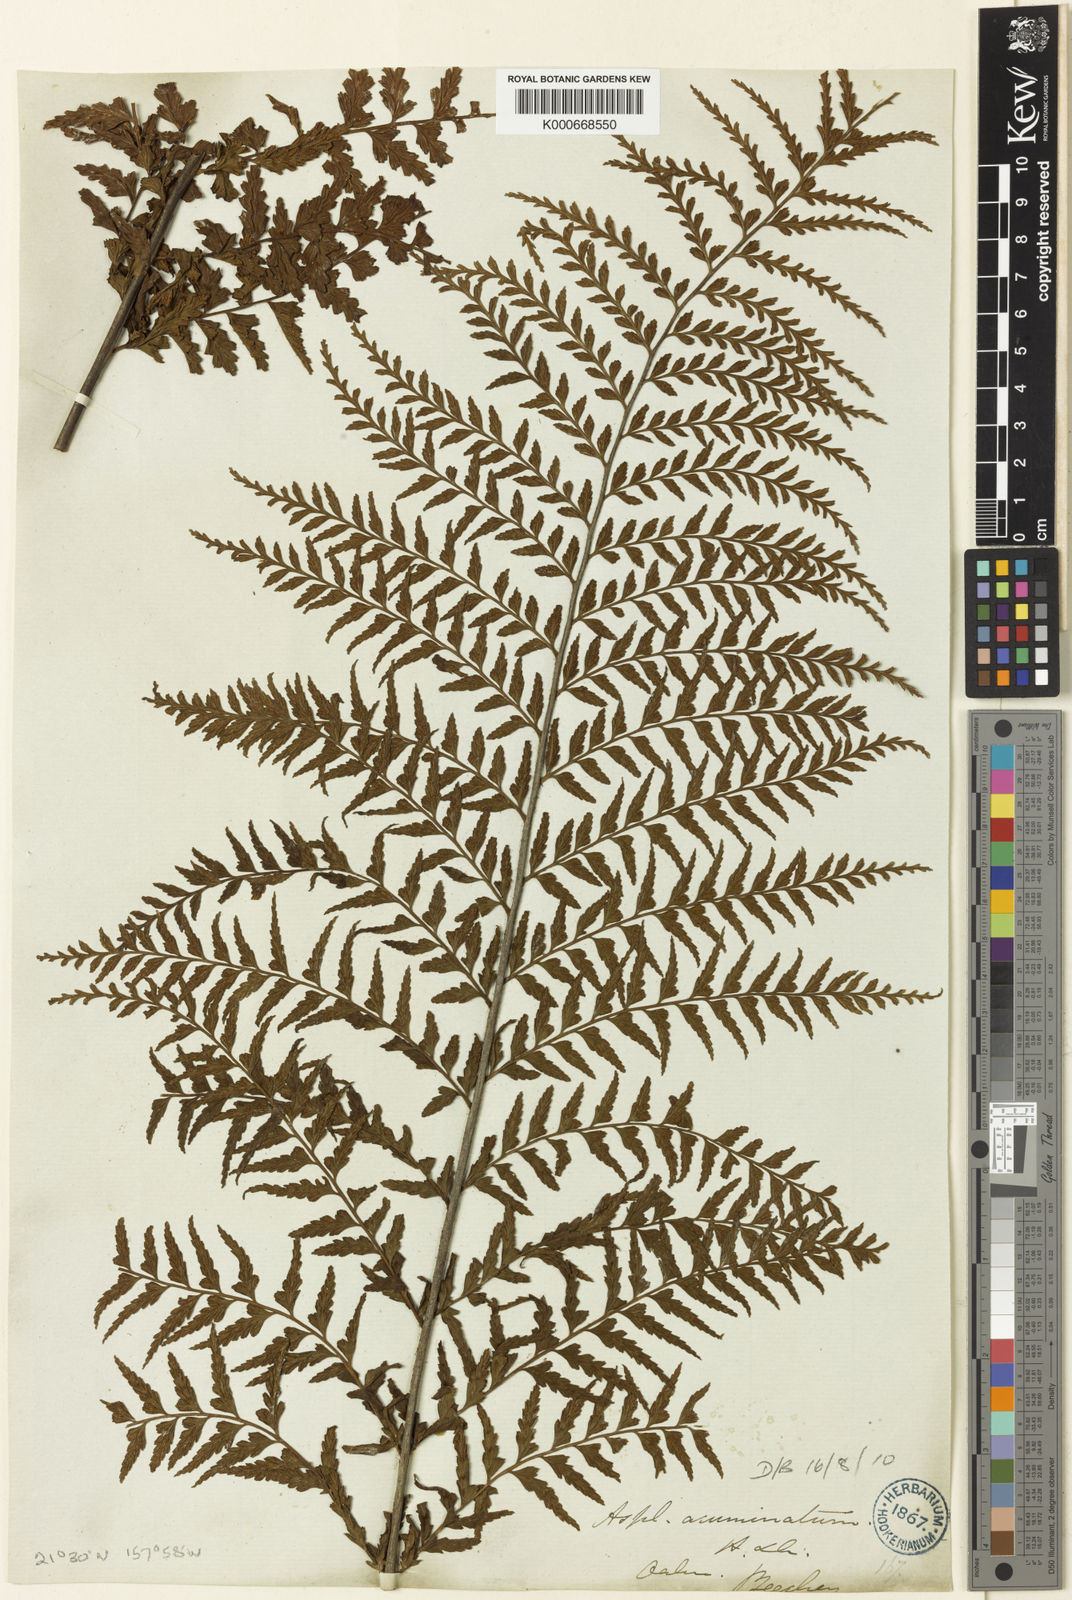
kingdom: Plantae
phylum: Tracheophyta
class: Polypodiopsida
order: Polypodiales
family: Aspleniaceae
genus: Asplenium
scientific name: Asplenium acuminatum
